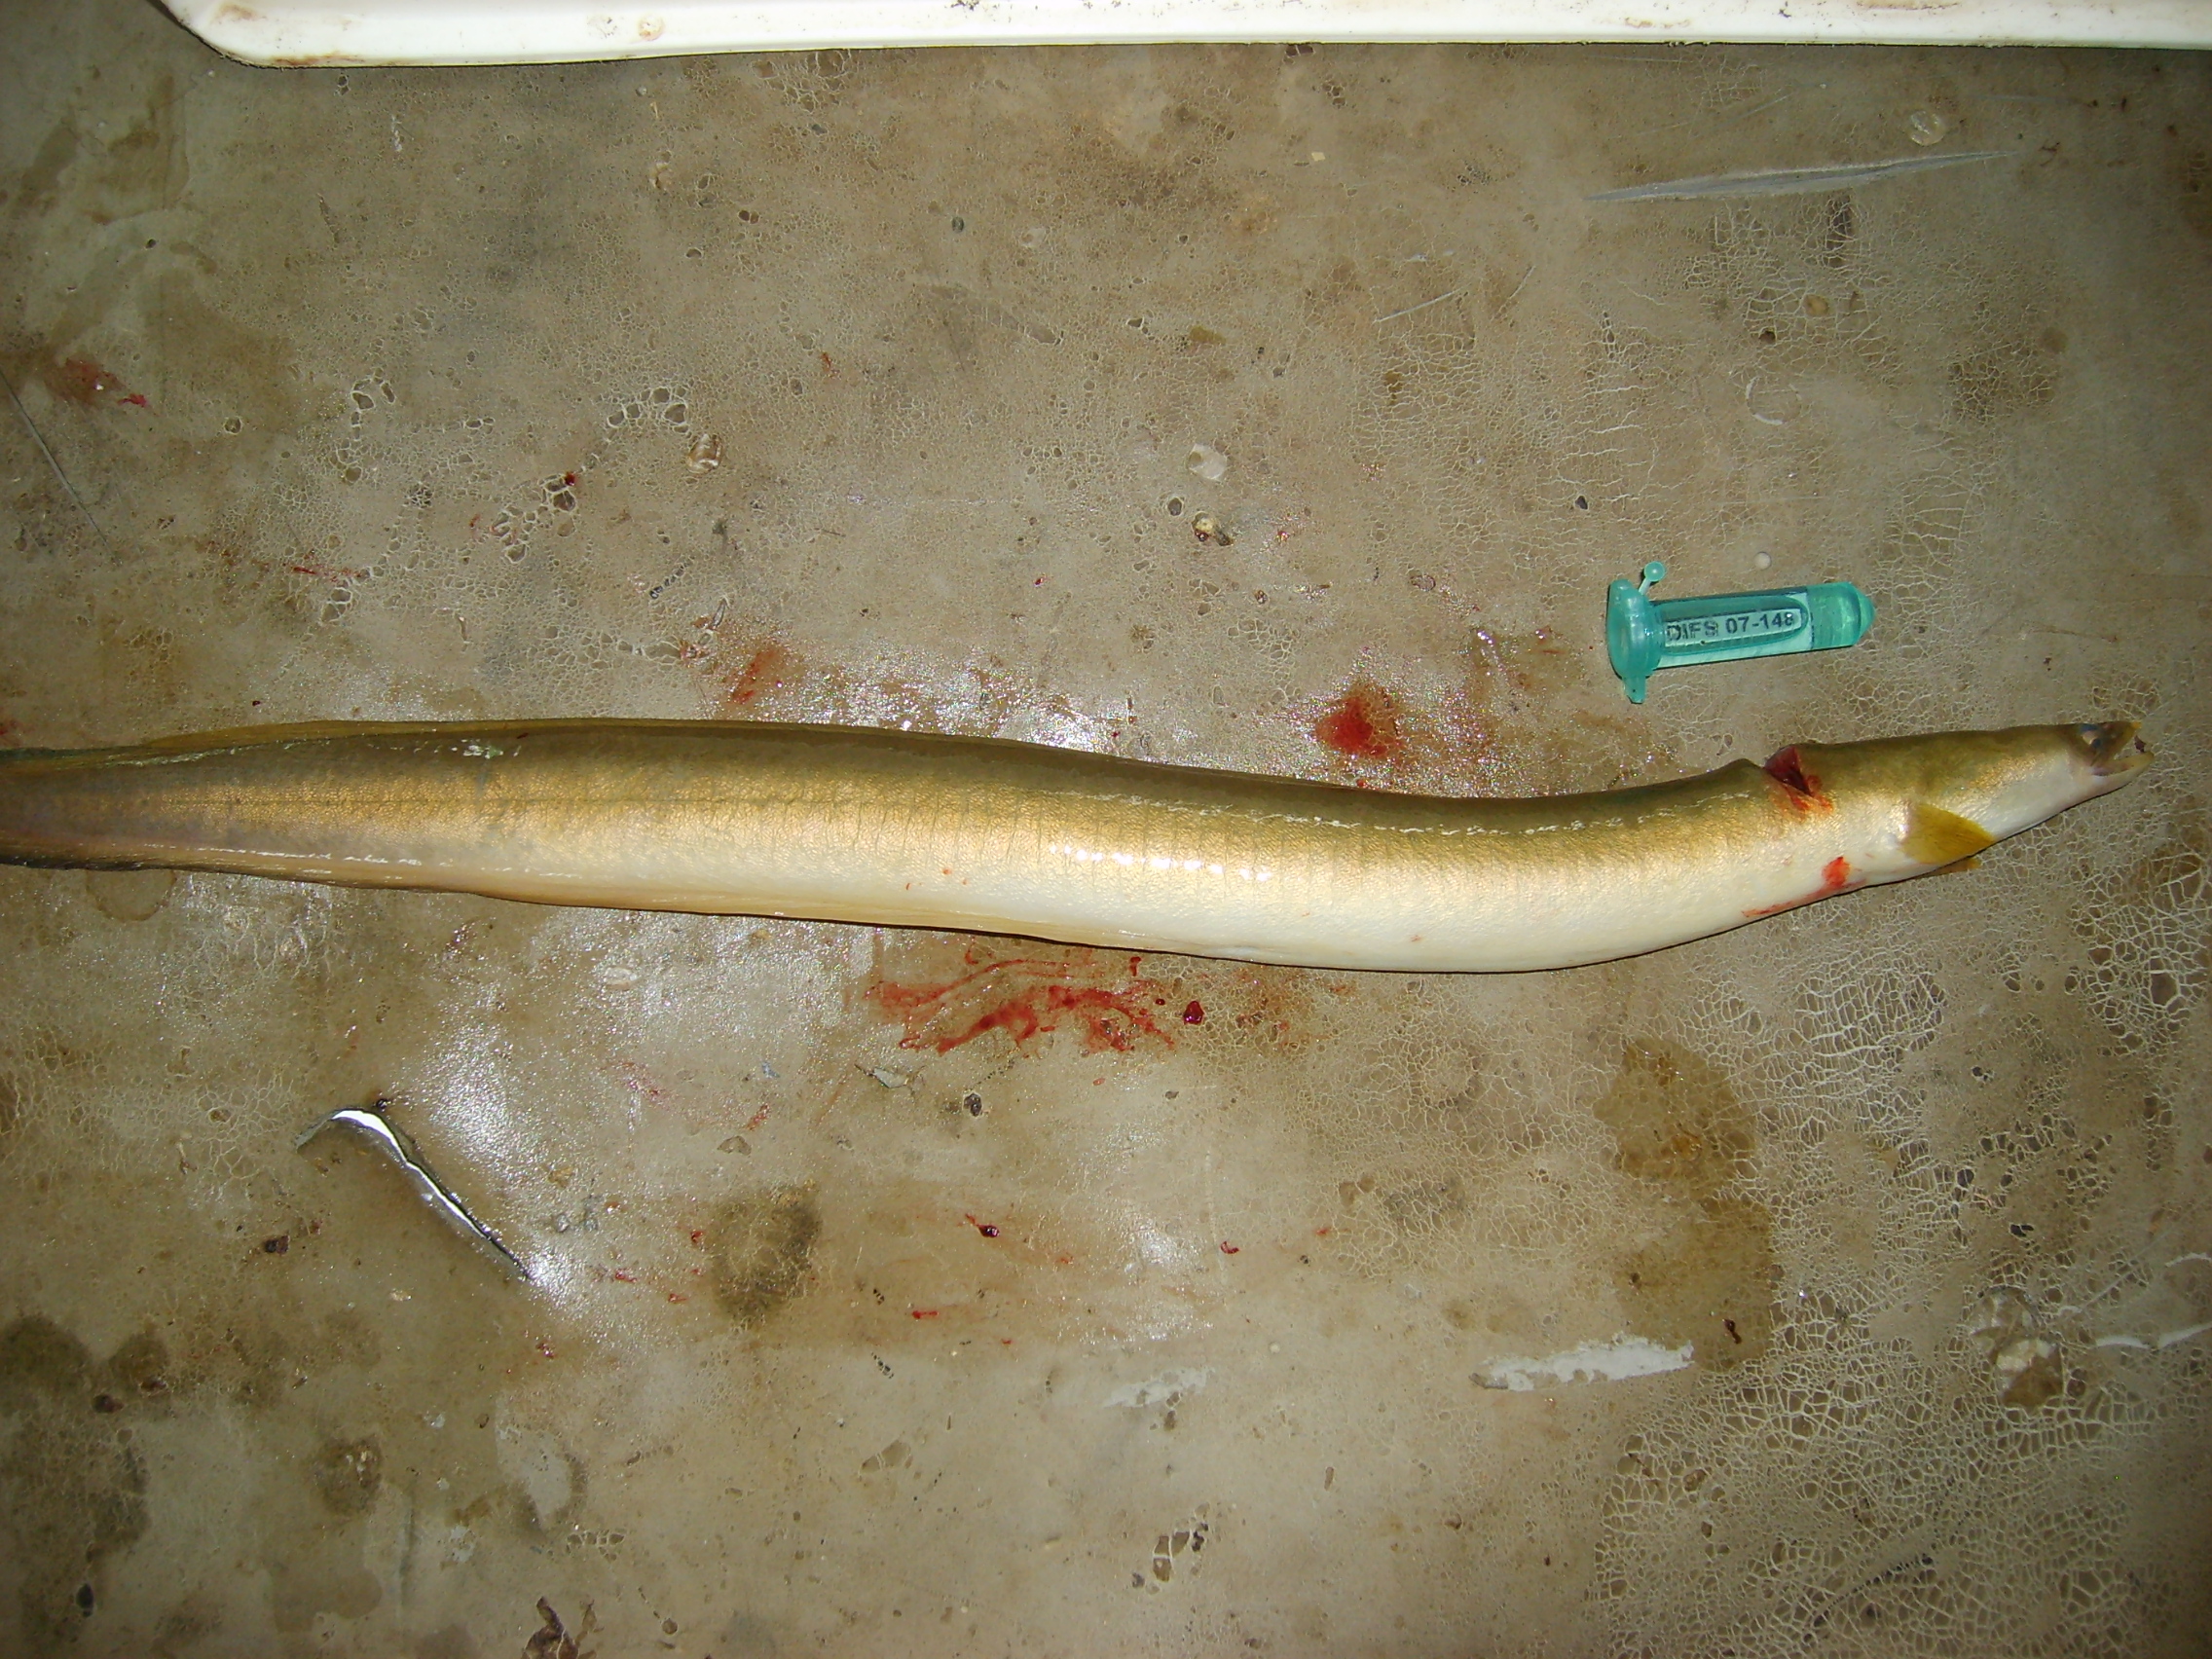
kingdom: Animalia
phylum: Chordata
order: Anguilliformes
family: Anguillidae
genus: Anguilla
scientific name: Anguilla mossambica
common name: African longfin eel
